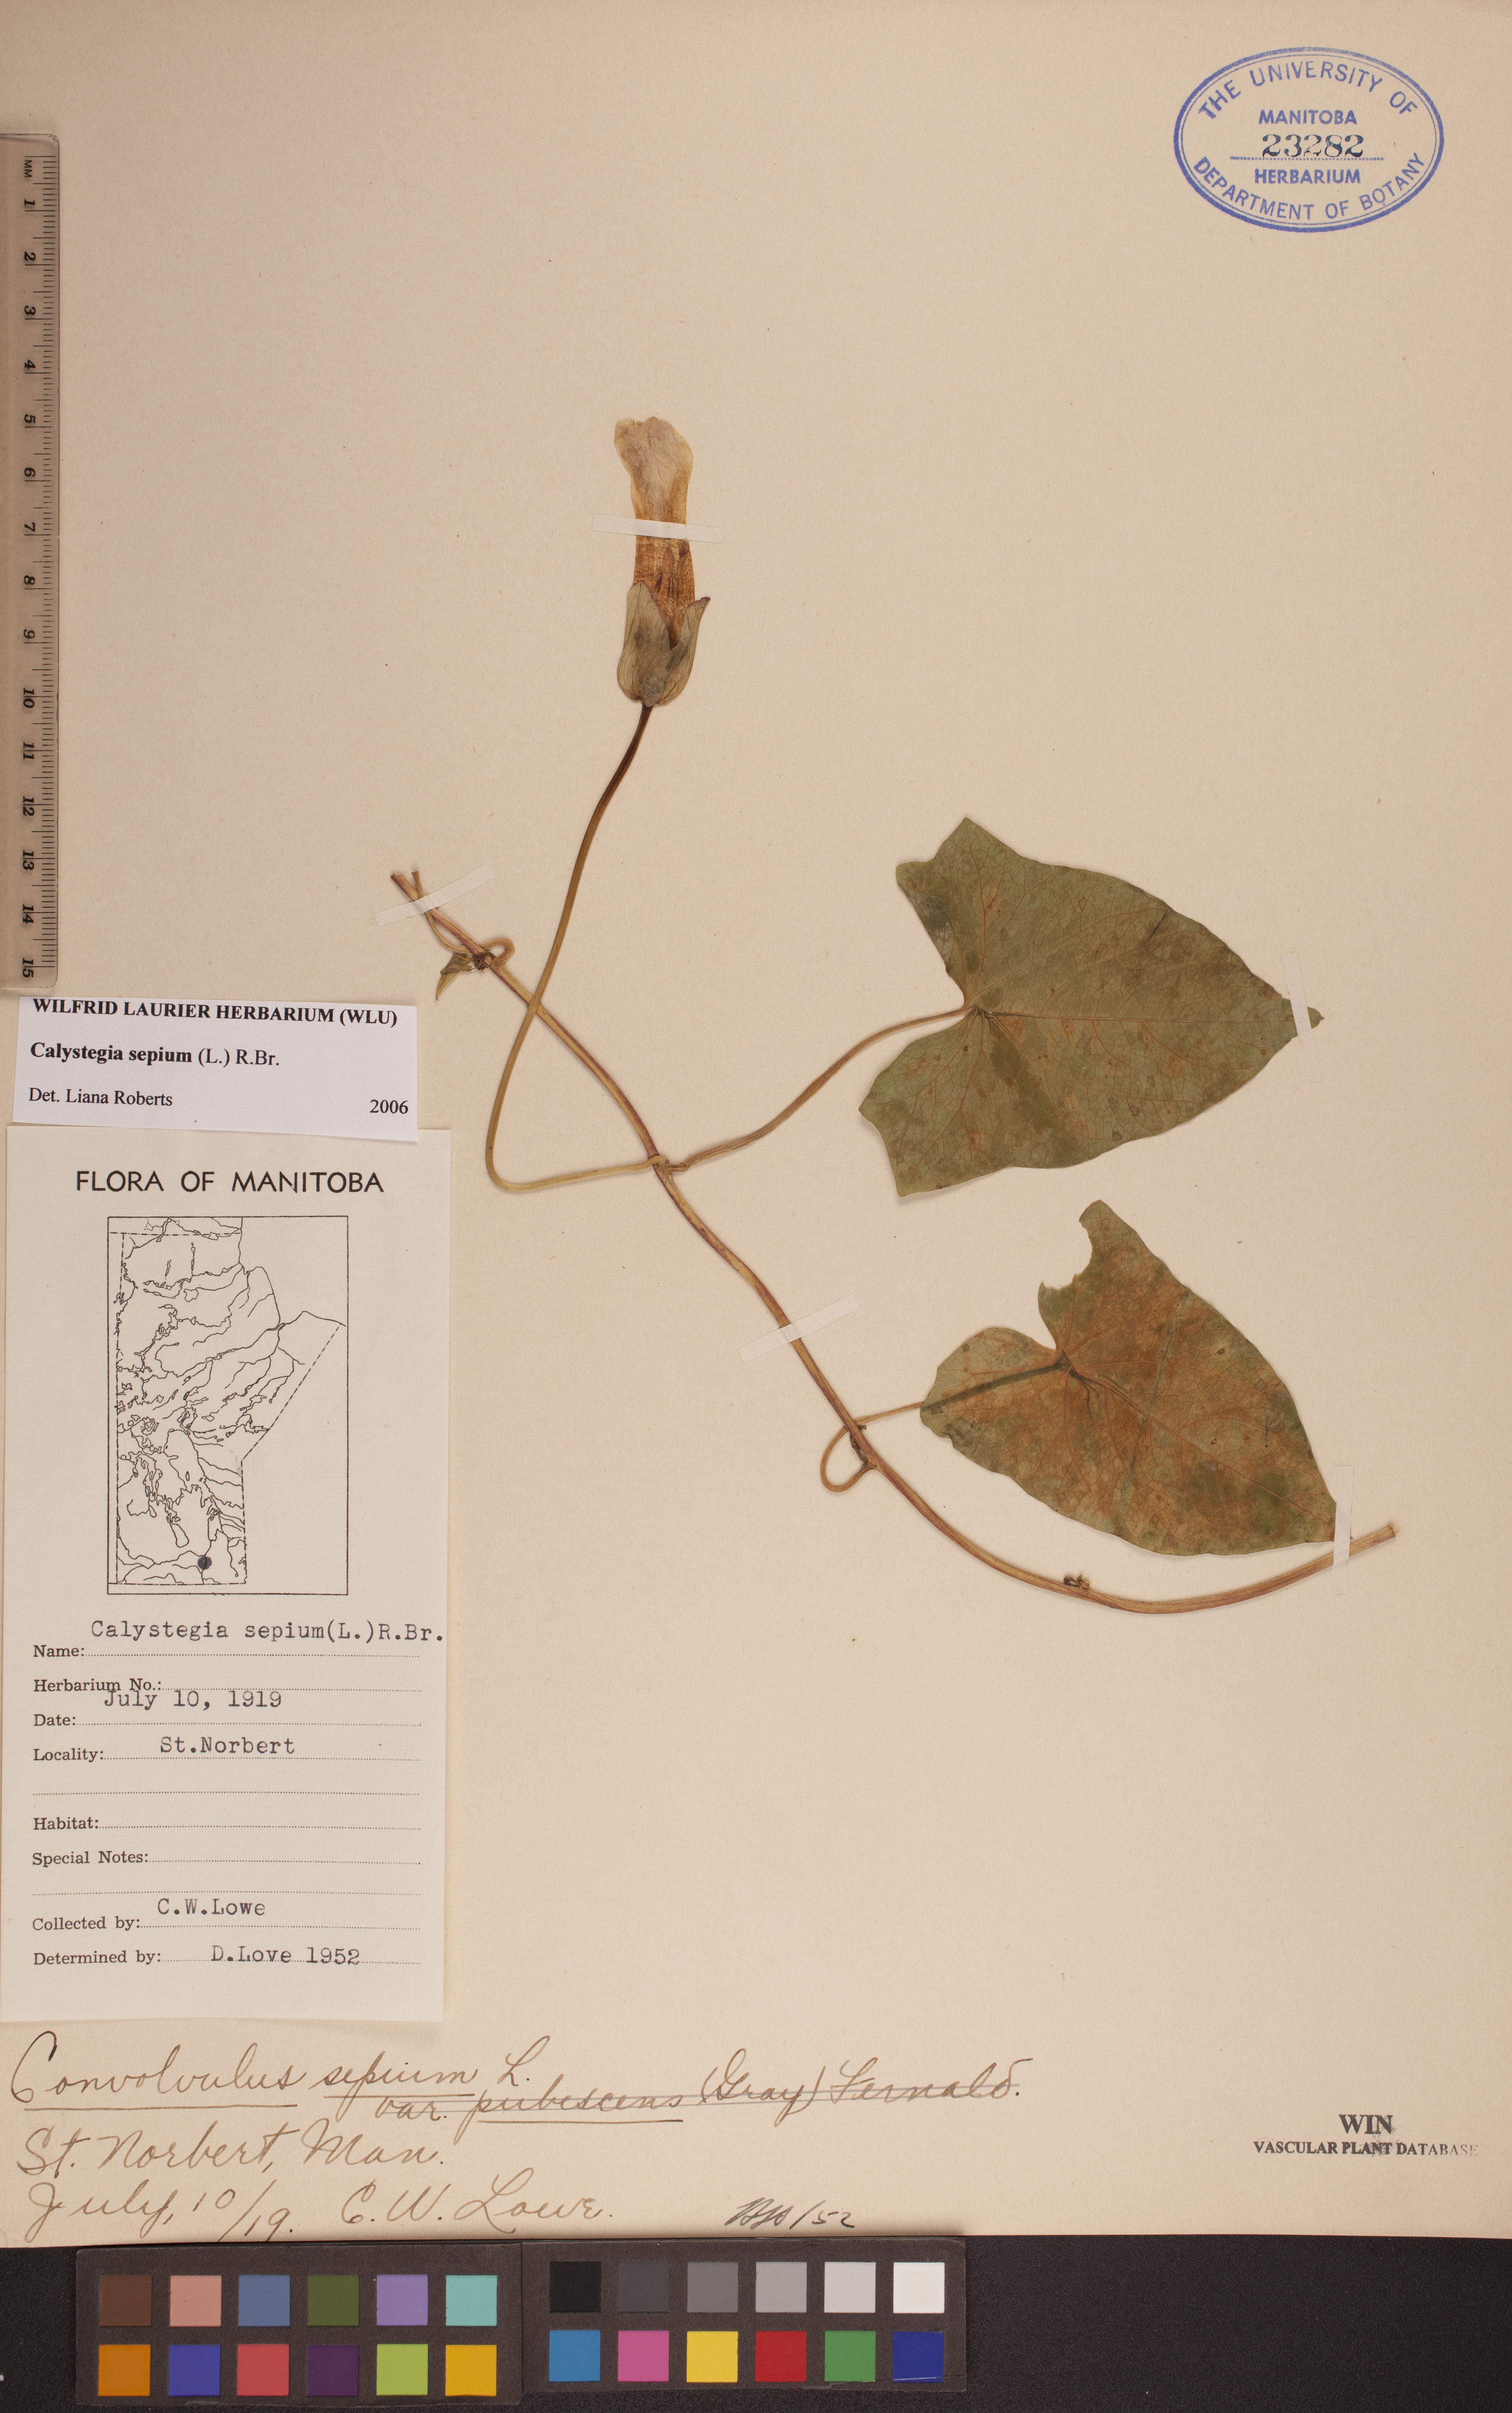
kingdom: Plantae
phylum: Tracheophyta
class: Magnoliopsida
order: Solanales
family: Convolvulaceae
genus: Calystegia
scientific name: Calystegia sepium
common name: Hedge bindweed
